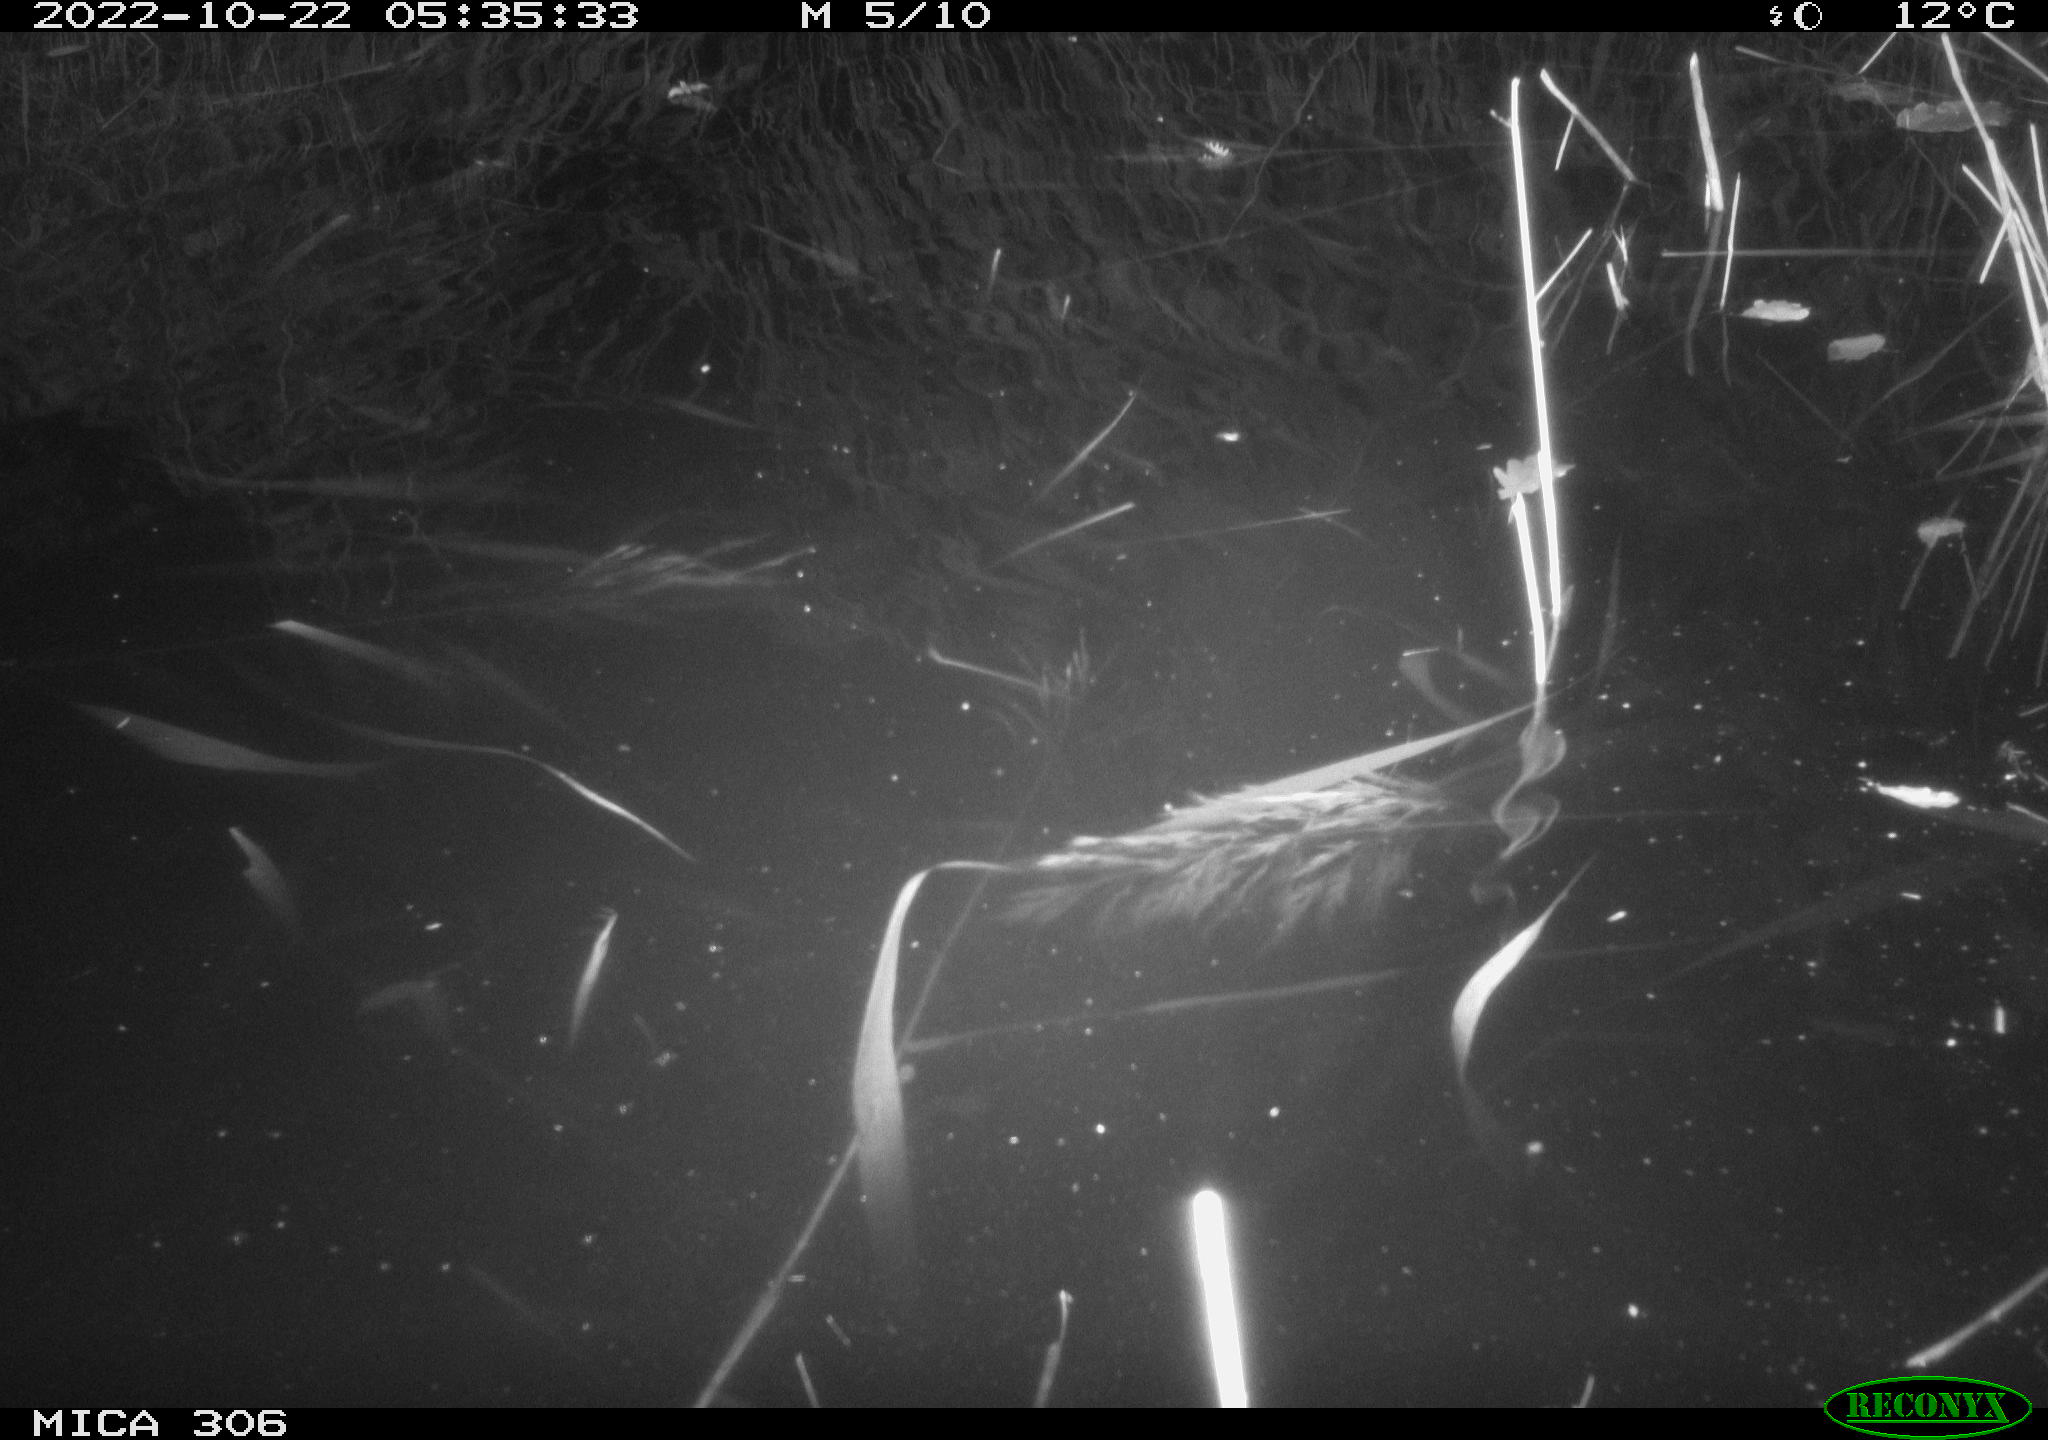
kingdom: Animalia
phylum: Chordata
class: Mammalia
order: Rodentia
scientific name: Rodentia
